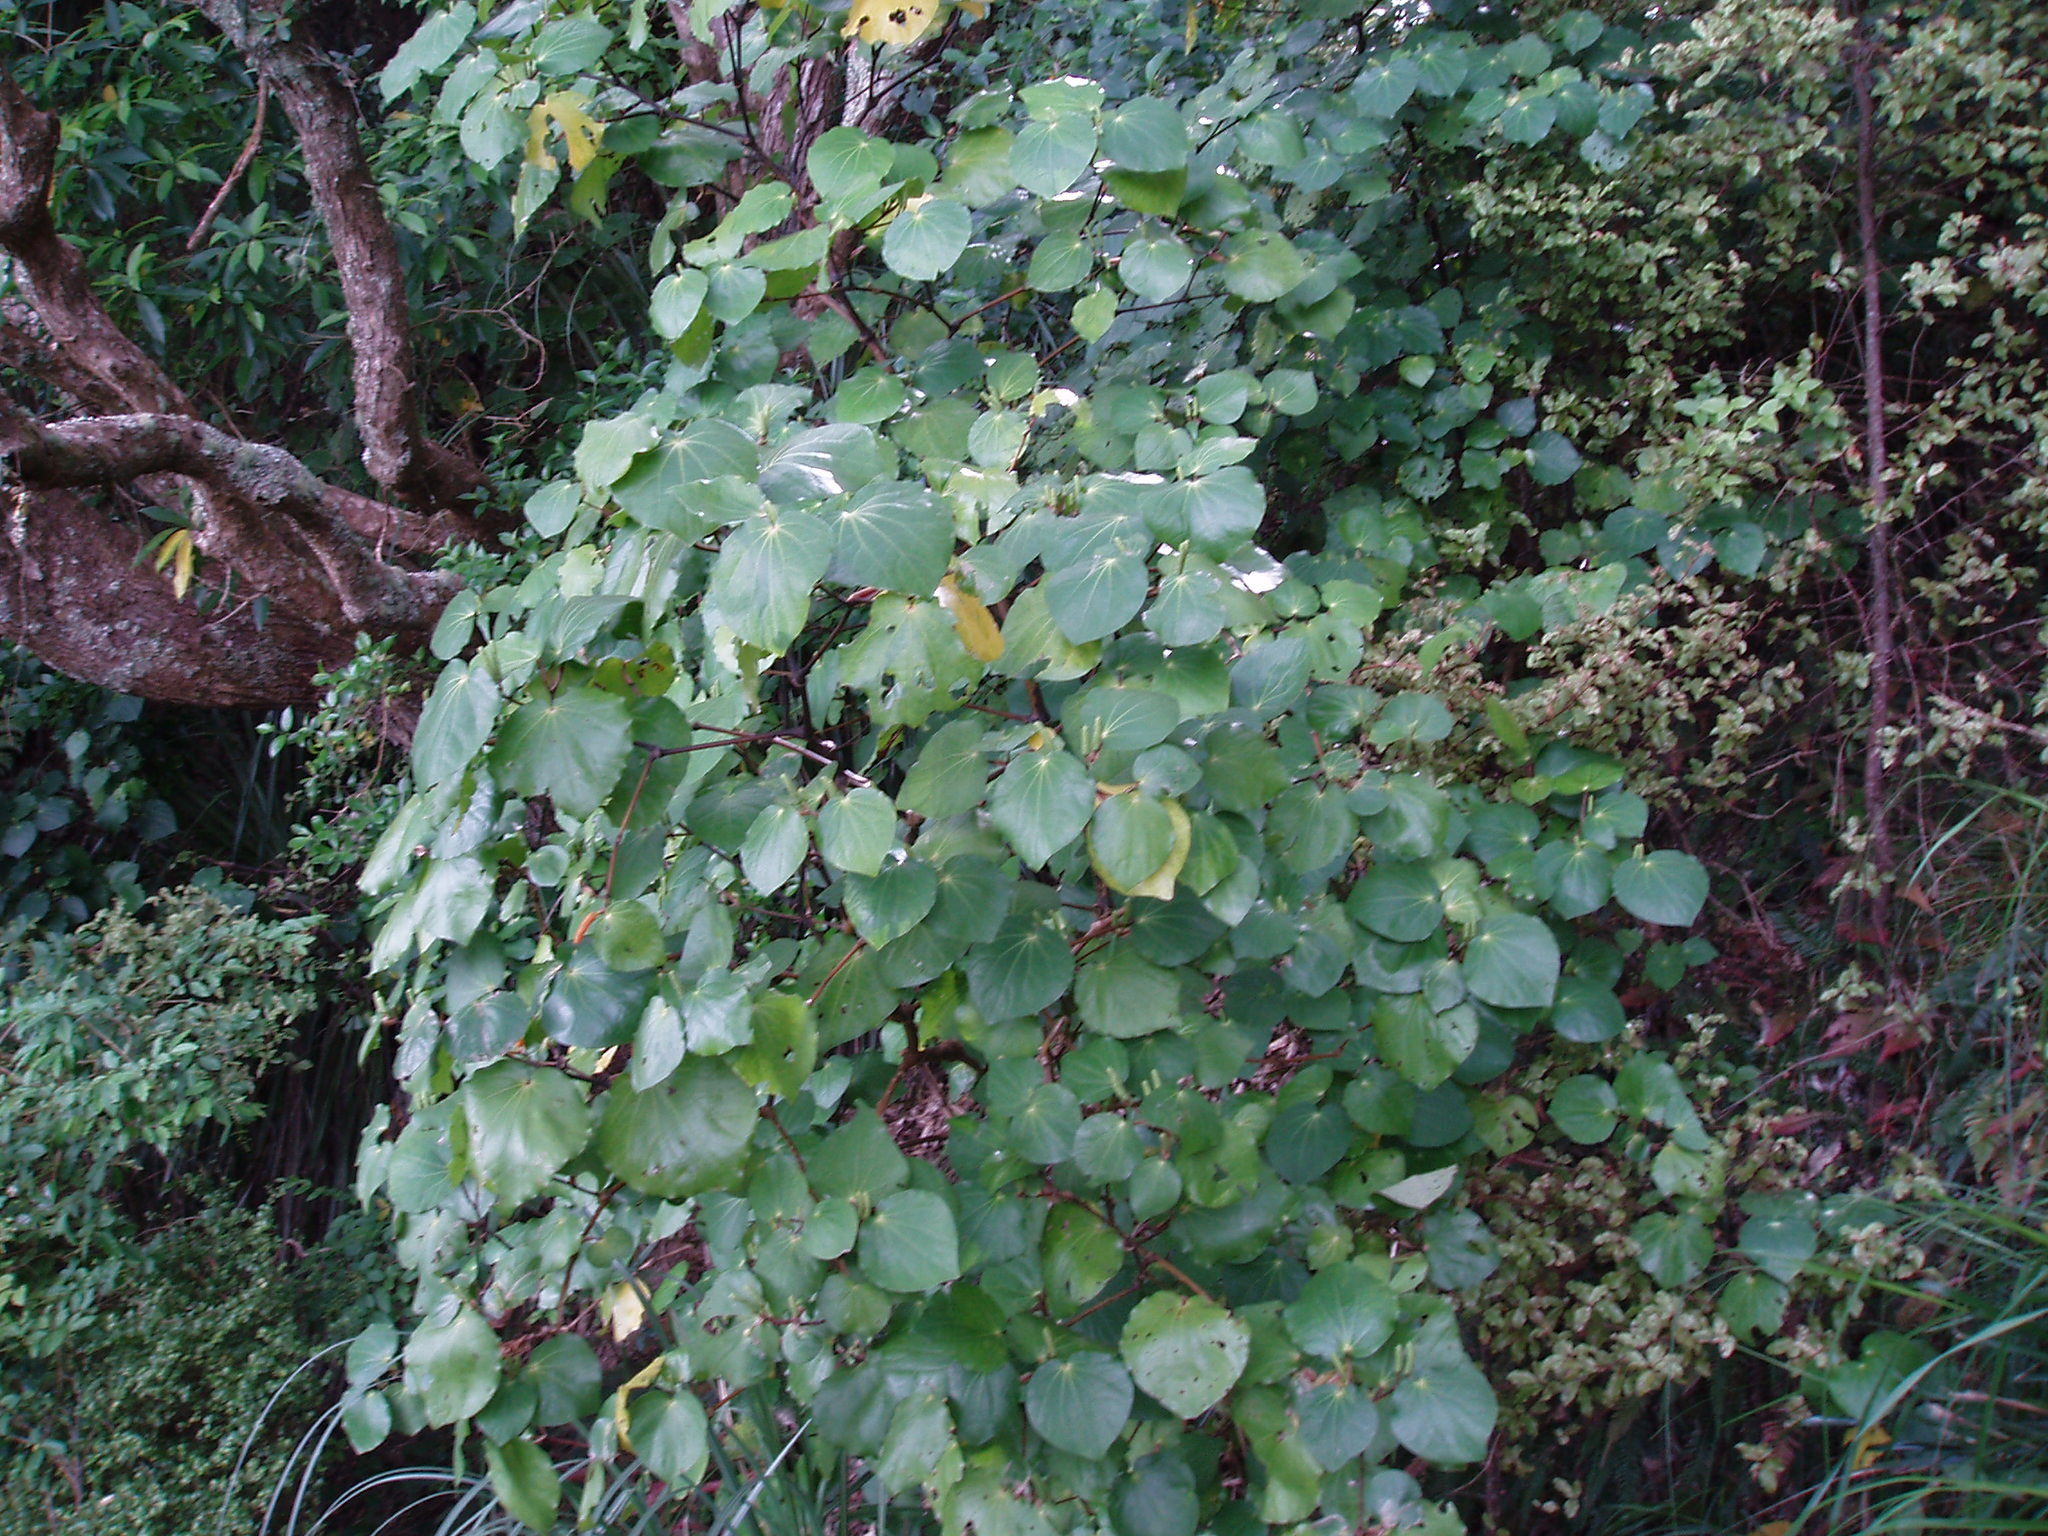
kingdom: Plantae
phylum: Tracheophyta
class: Magnoliopsida
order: Piperales
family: Piperaceae
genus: Macropiper
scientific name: Macropiper excelsum
